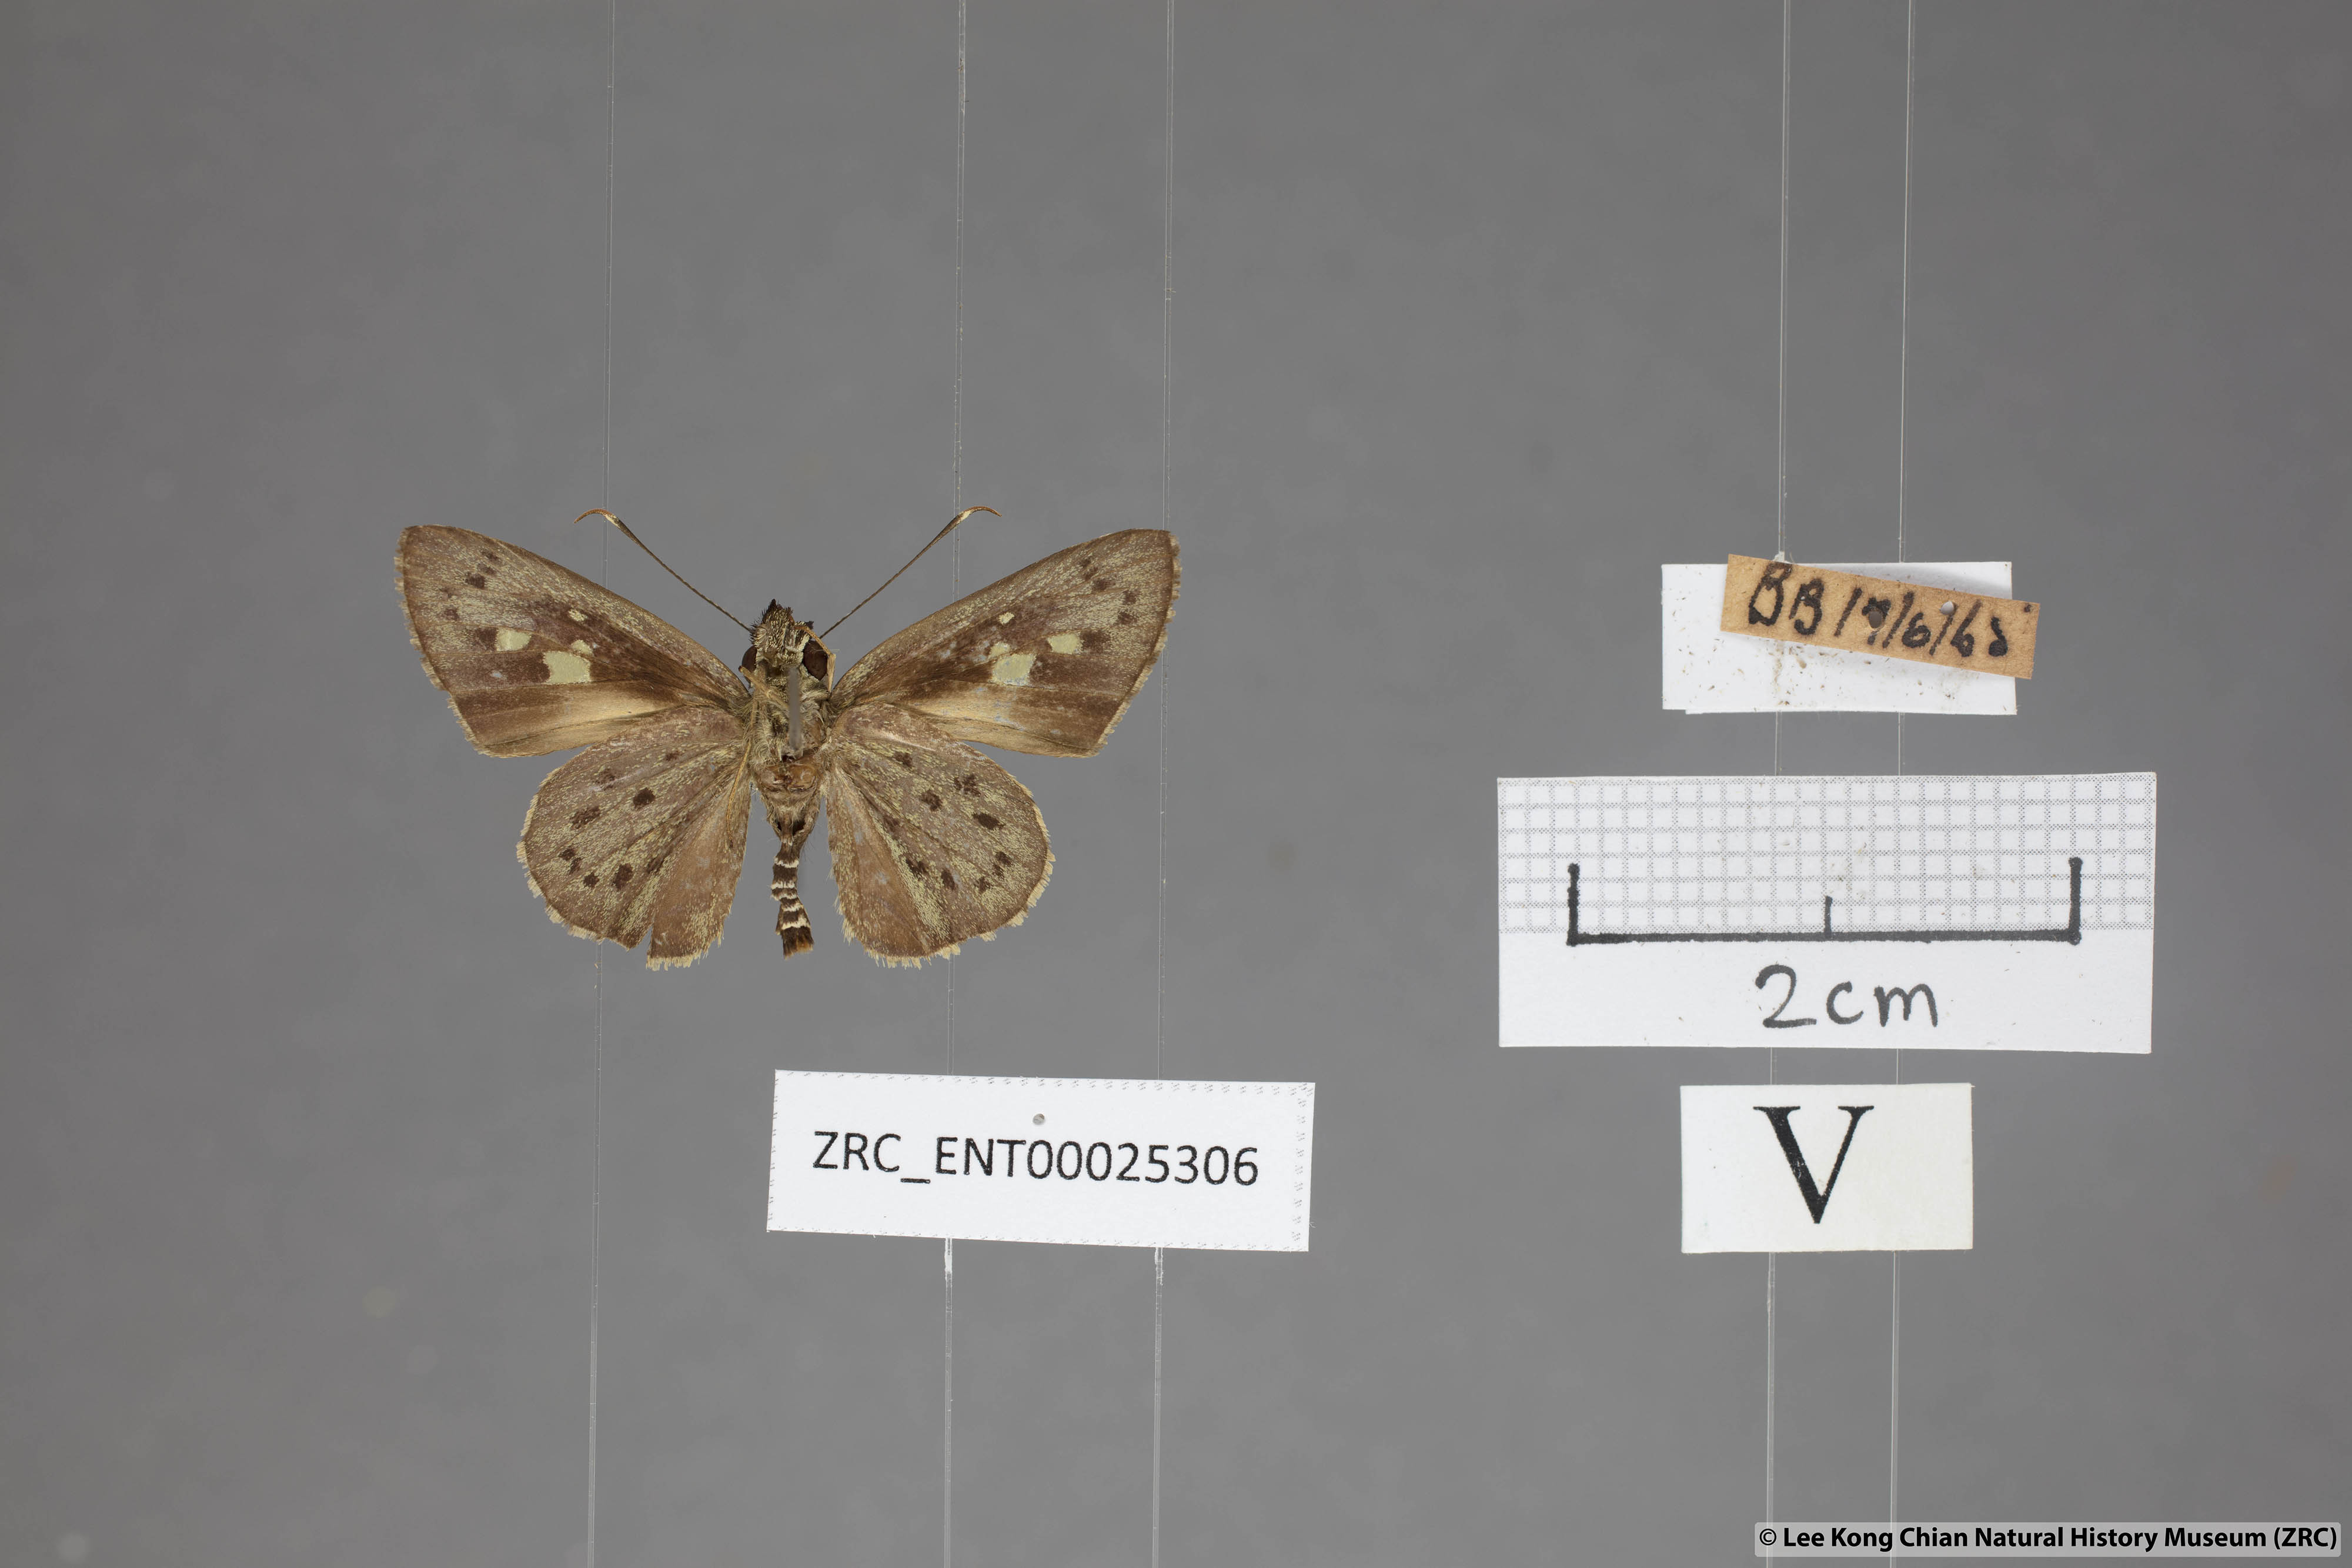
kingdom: Animalia
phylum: Arthropoda
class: Insecta
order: Lepidoptera
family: Hesperiidae
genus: Salanoemia
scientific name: Salanoemia sala
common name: Maculate lancer
